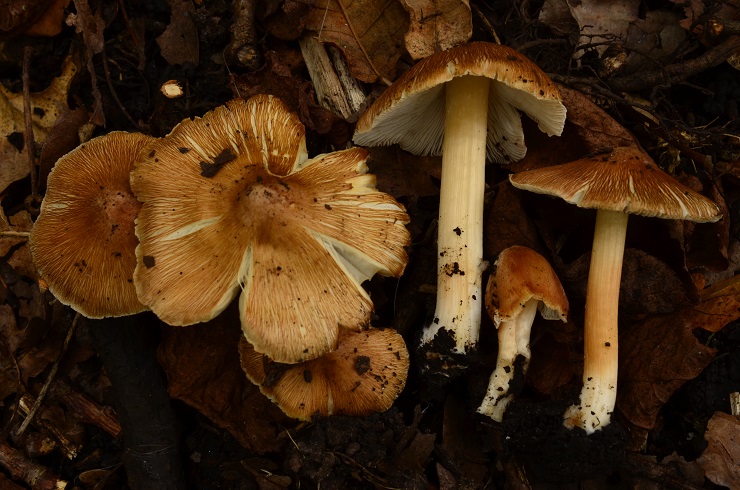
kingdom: Fungi
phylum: Basidiomycota
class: Agaricomycetes
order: Agaricales
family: Inocybaceae
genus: Inosperma
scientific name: Inosperma fulvum
